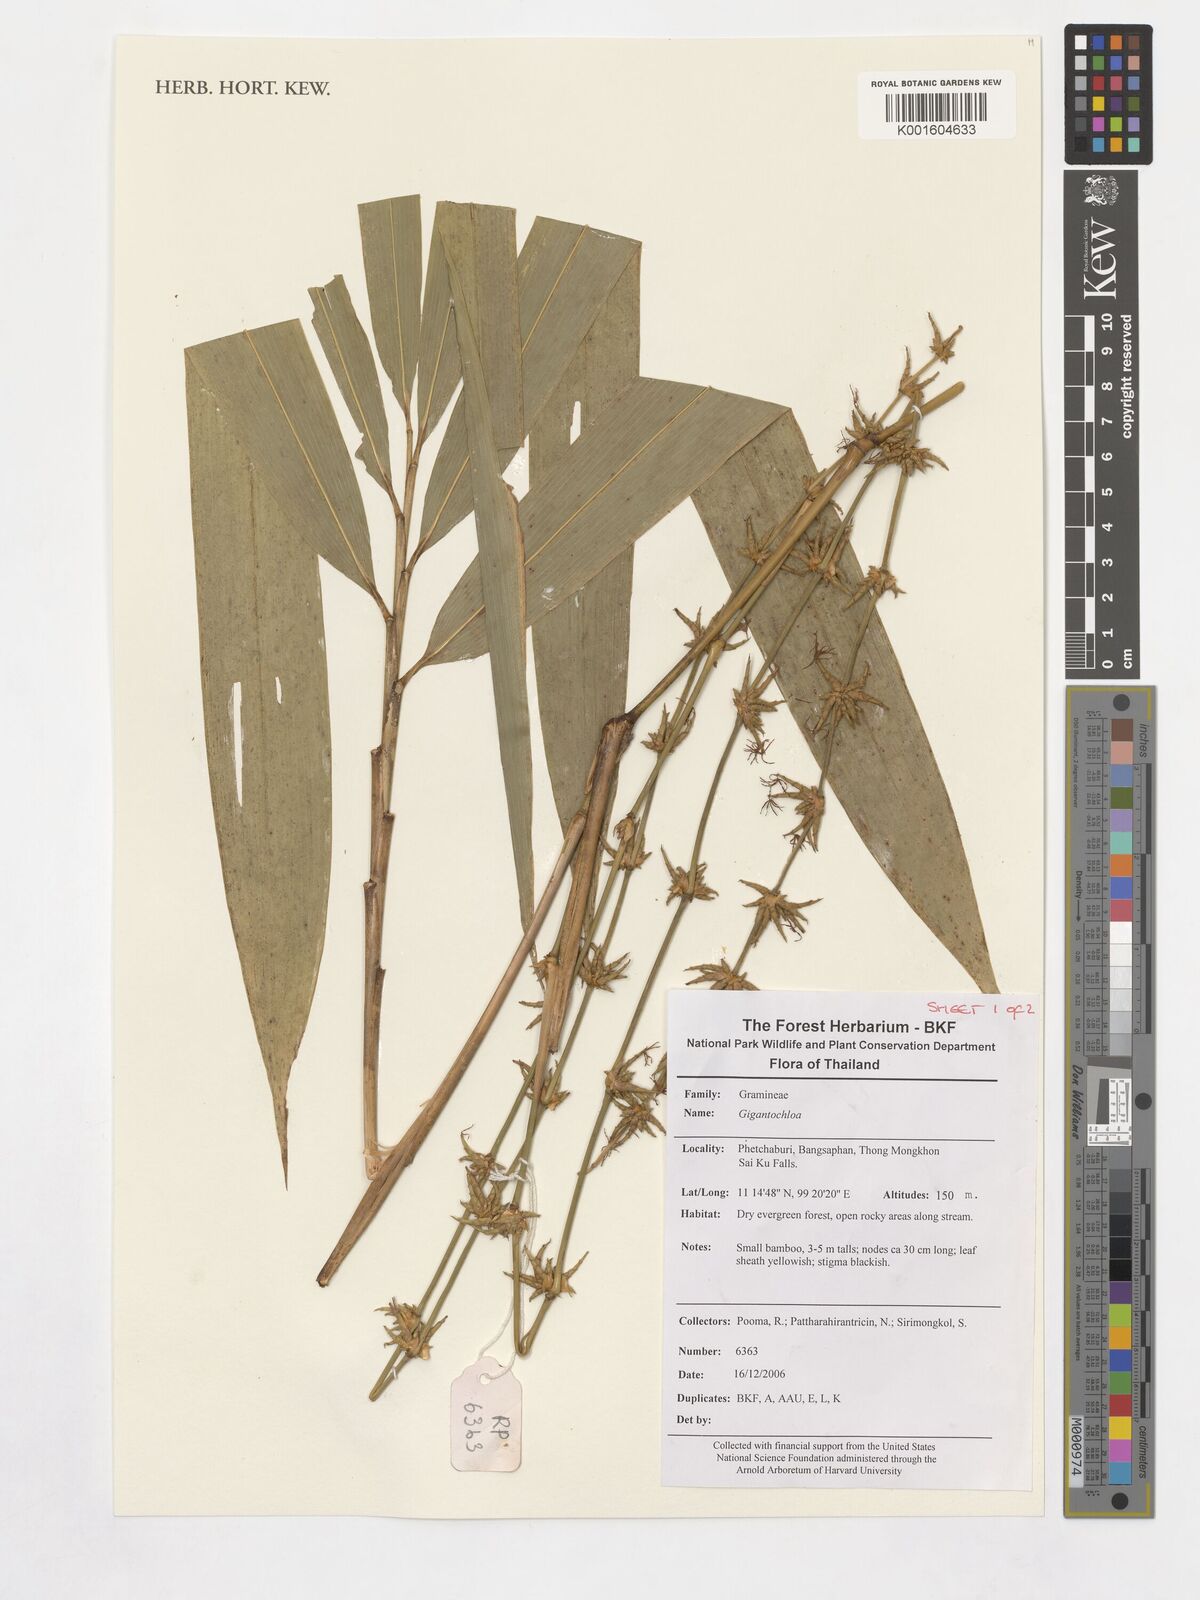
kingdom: Plantae
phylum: Tracheophyta
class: Liliopsida
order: Poales
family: Poaceae
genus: Gigantochloa
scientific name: Gigantochloa
